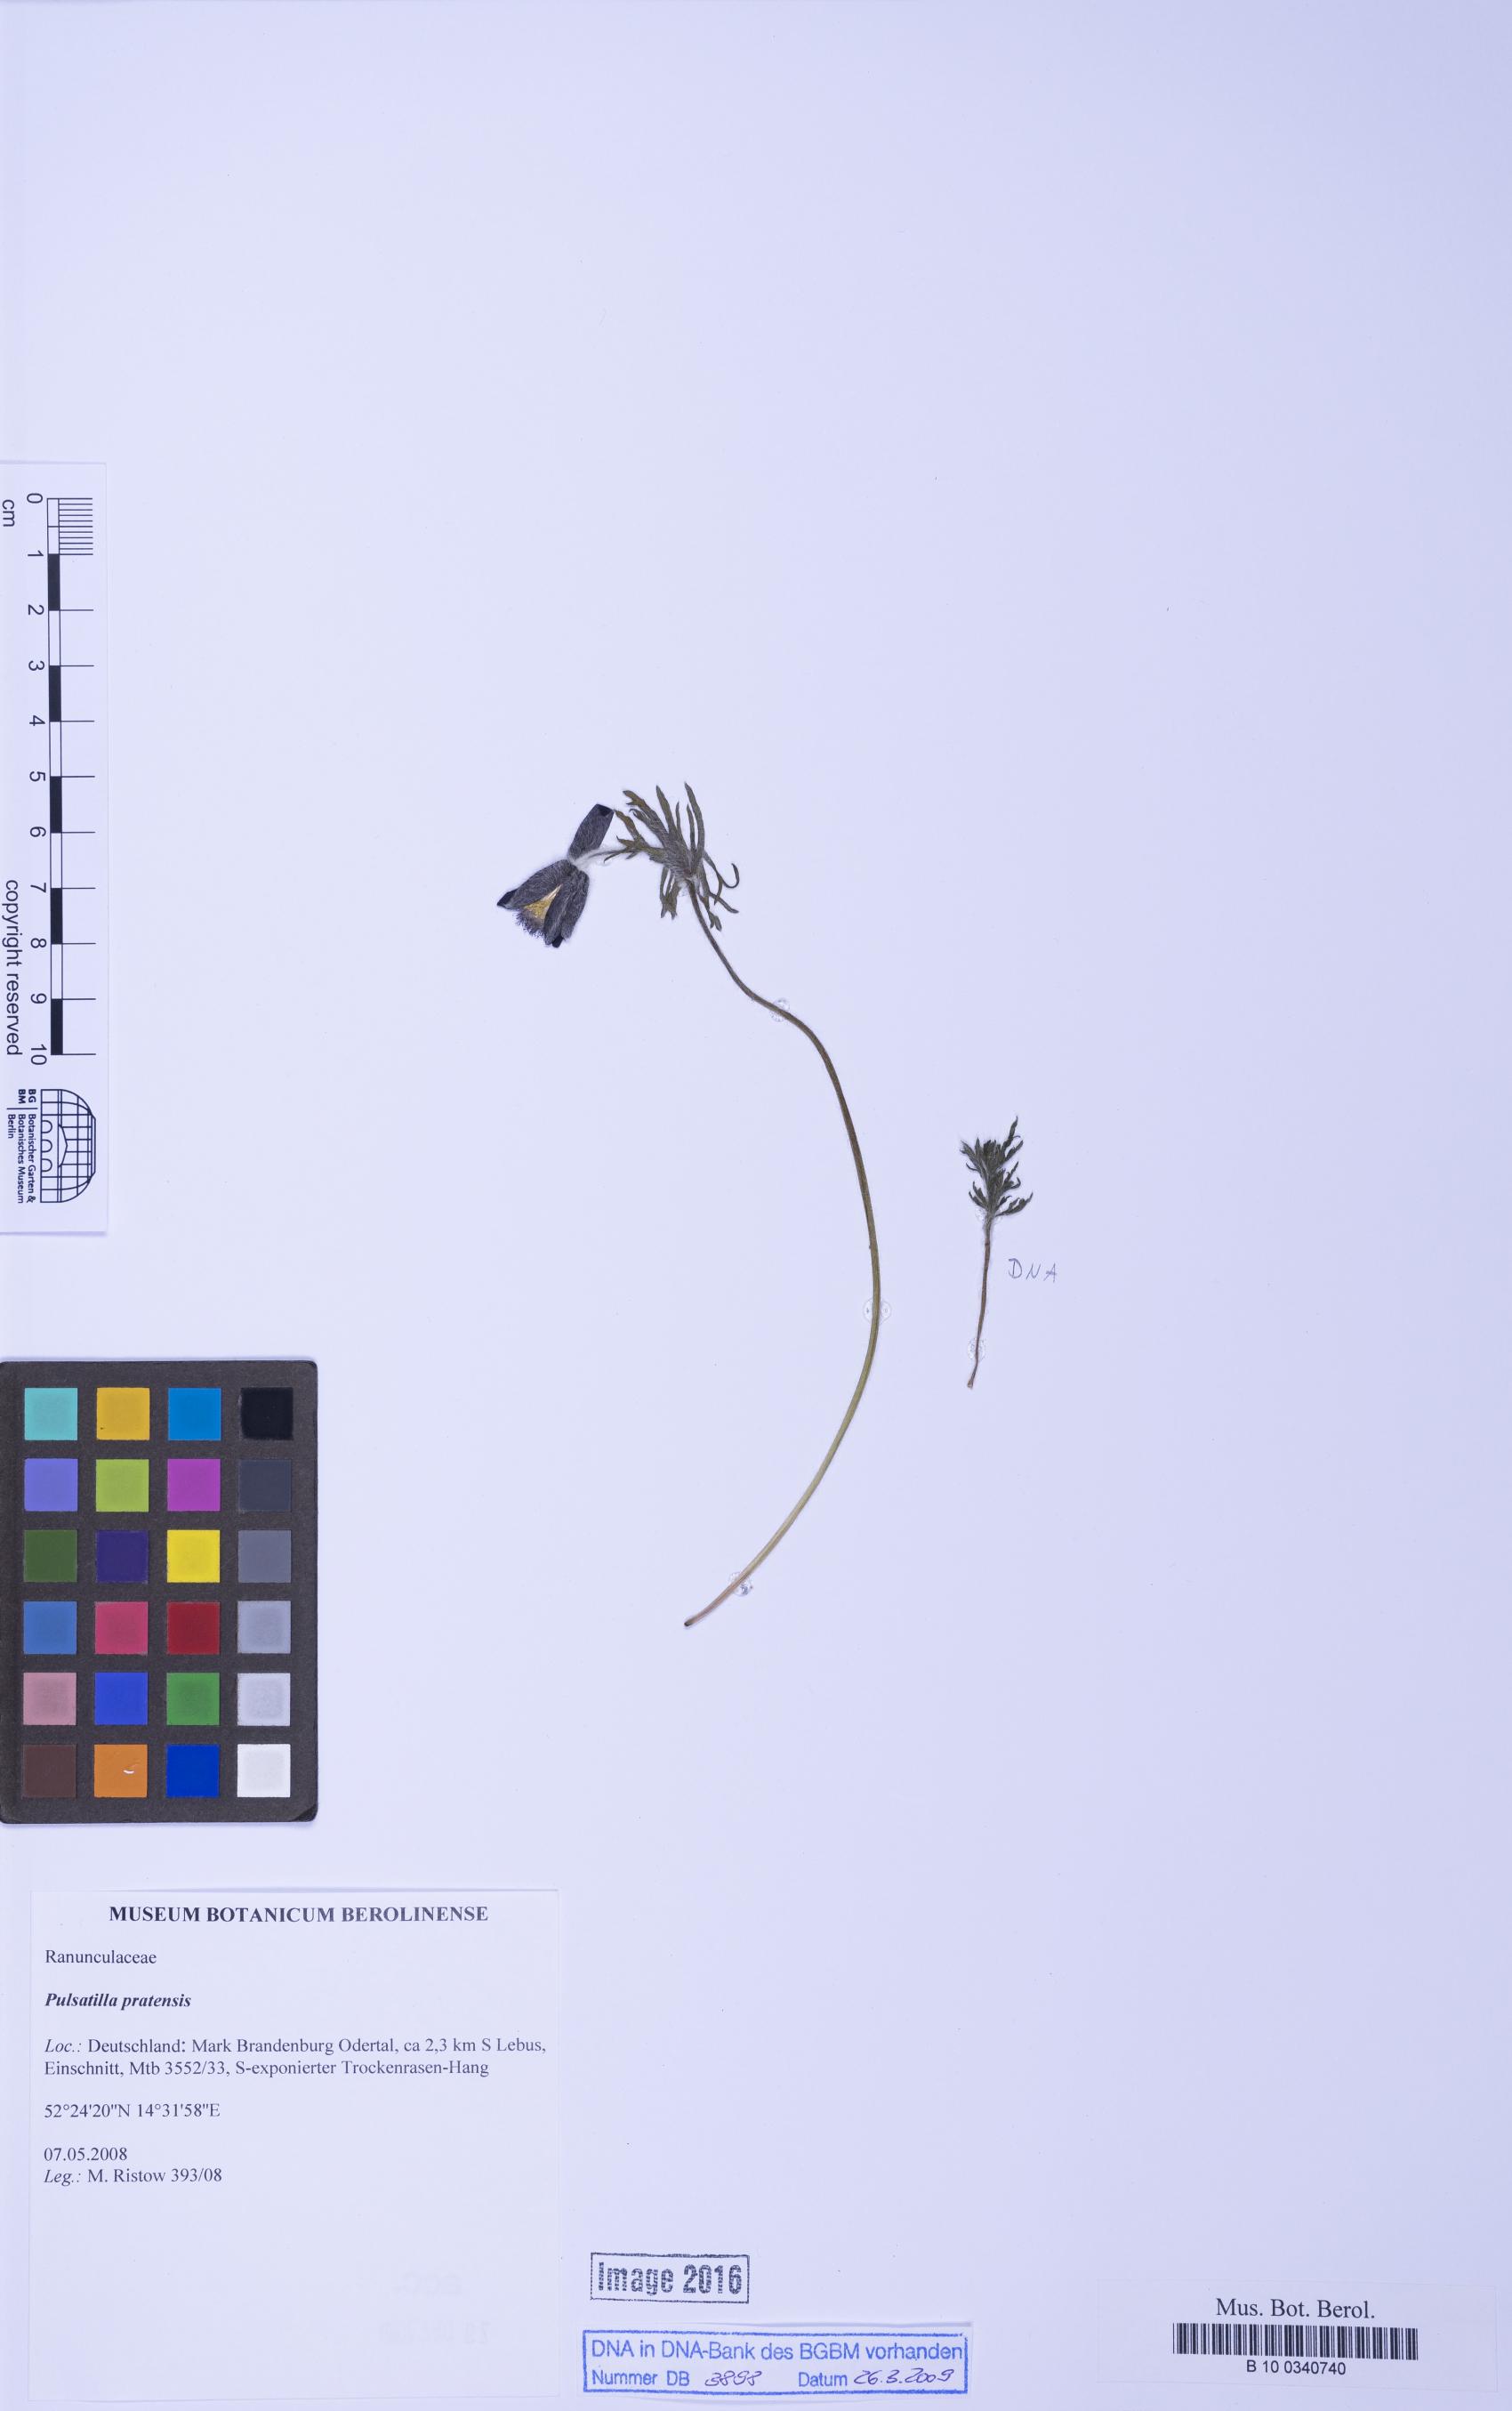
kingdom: Plantae
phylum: Tracheophyta
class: Magnoliopsida
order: Ranunculales
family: Ranunculaceae
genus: Pulsatilla
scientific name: Pulsatilla pratensis
